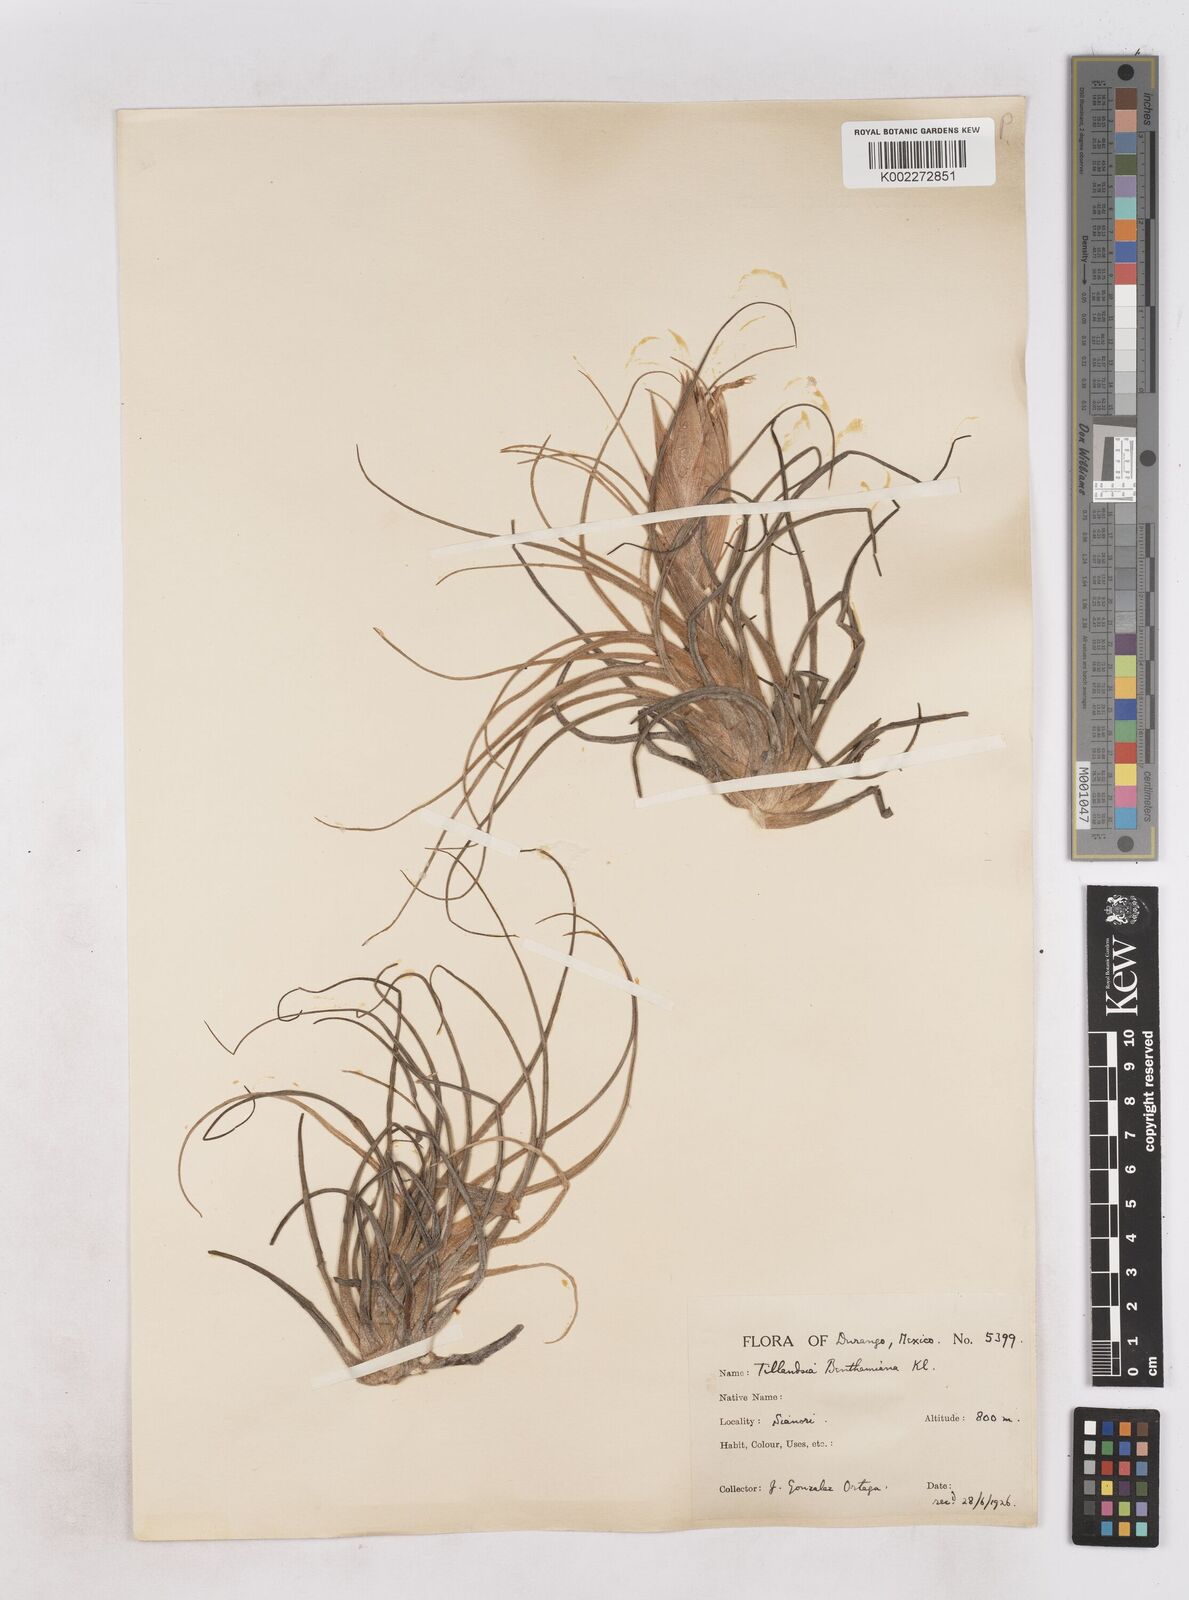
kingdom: Plantae
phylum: Tracheophyta
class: Liliopsida
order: Poales
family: Bromeliaceae
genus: Tillandsia
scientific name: Tillandsia erubescens
